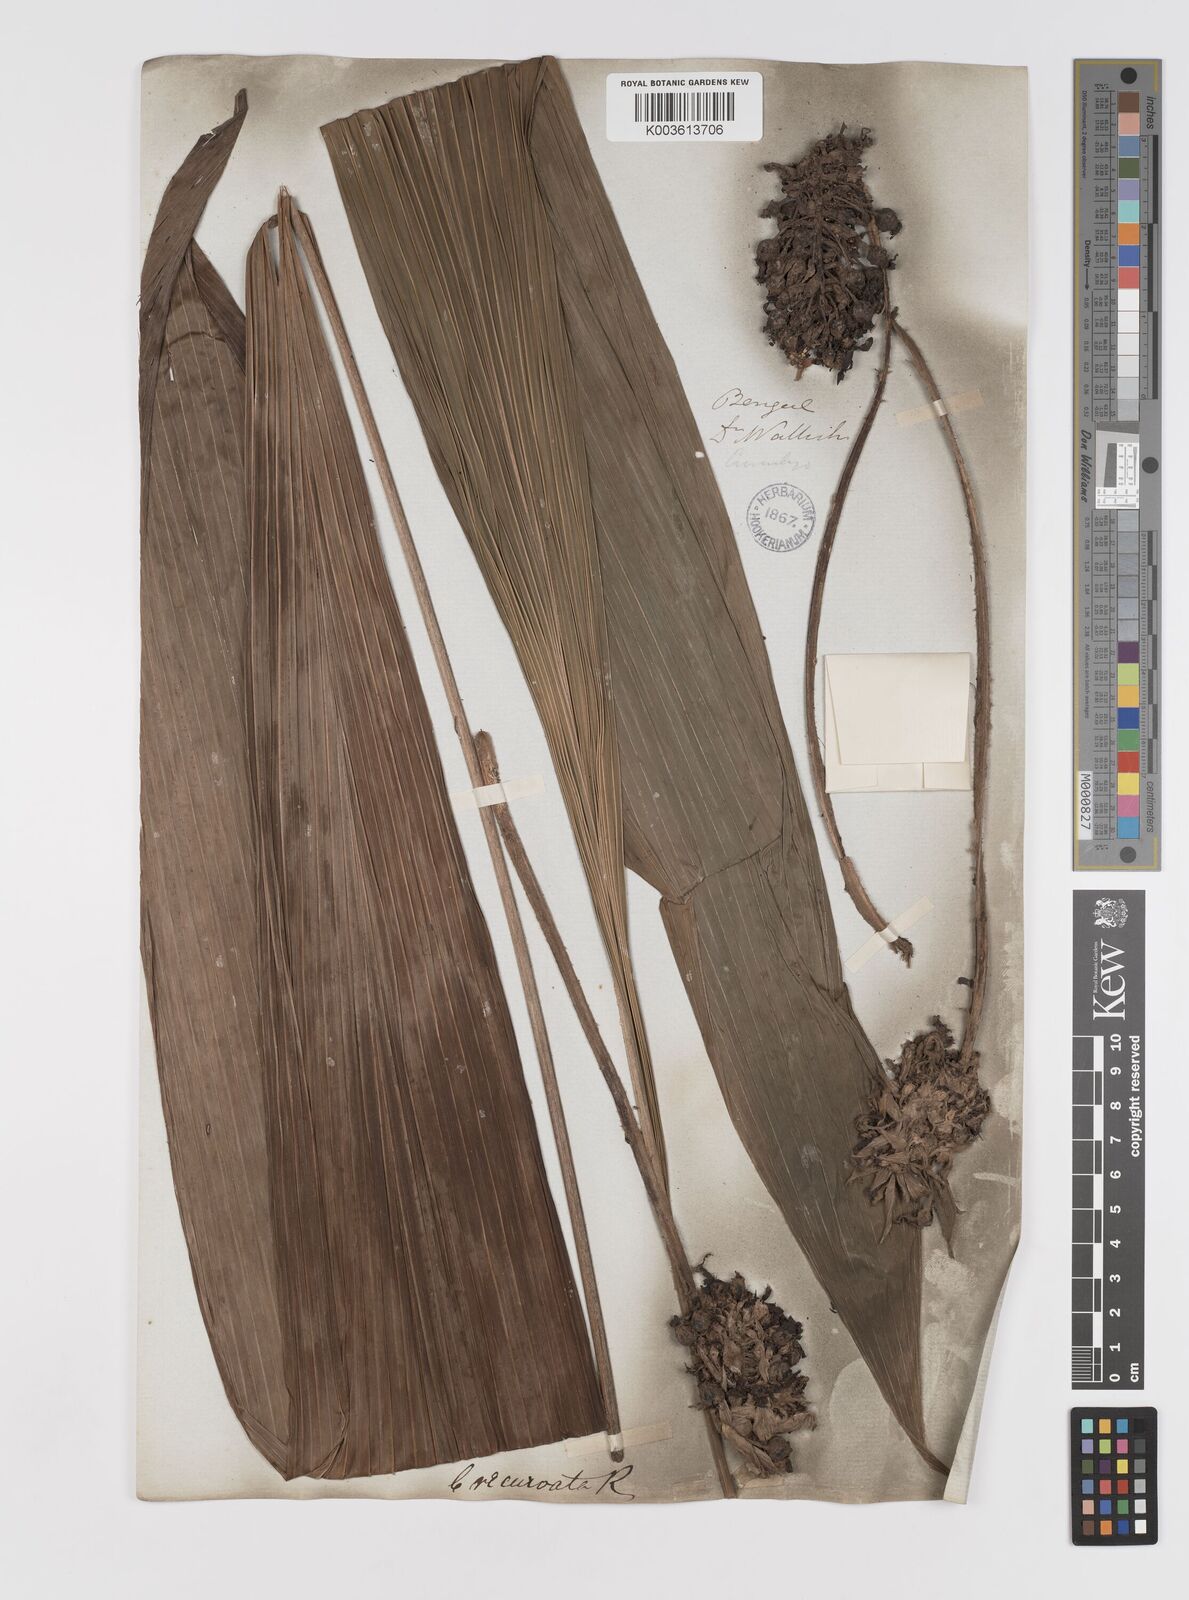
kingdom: Plantae
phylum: Tracheophyta
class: Liliopsida
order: Asparagales
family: Hypoxidaceae
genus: Curculigo
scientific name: Curculigo capitulata
